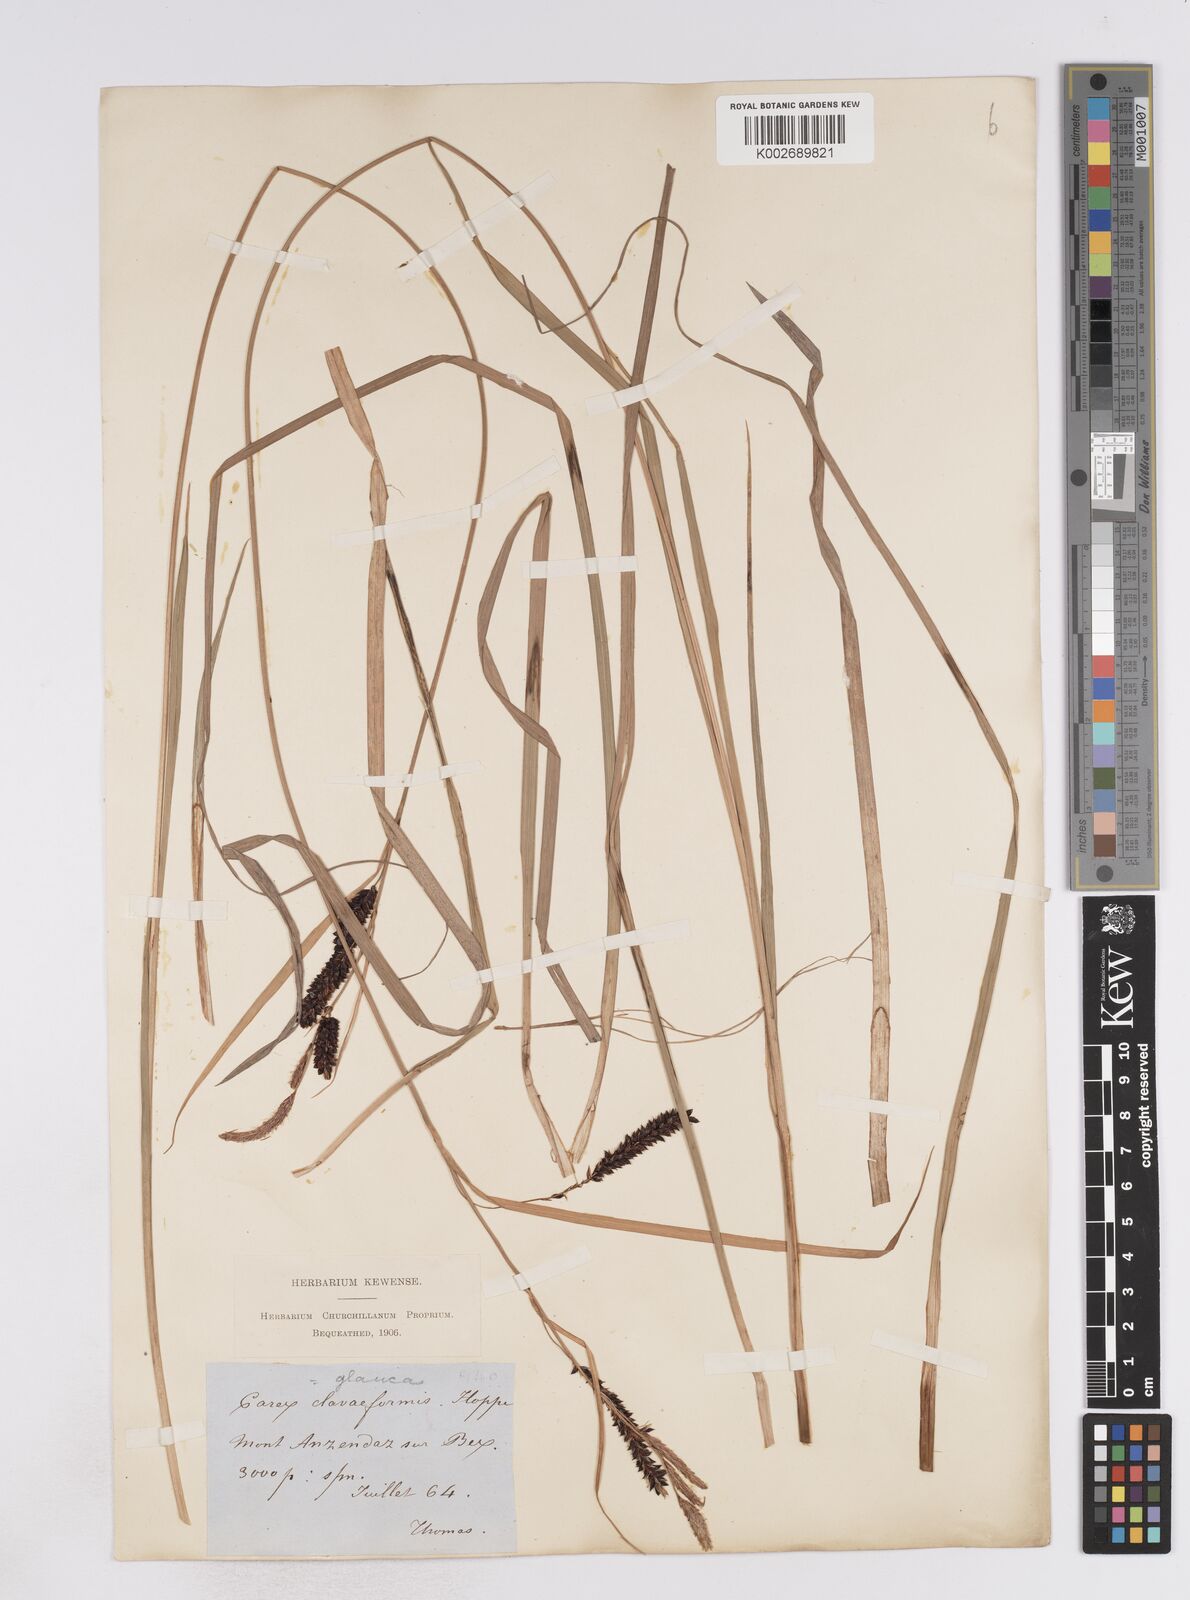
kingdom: Plantae
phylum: Tracheophyta
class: Liliopsida
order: Poales
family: Cyperaceae
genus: Carex
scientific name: Carex flacca
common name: Glaucous sedge
